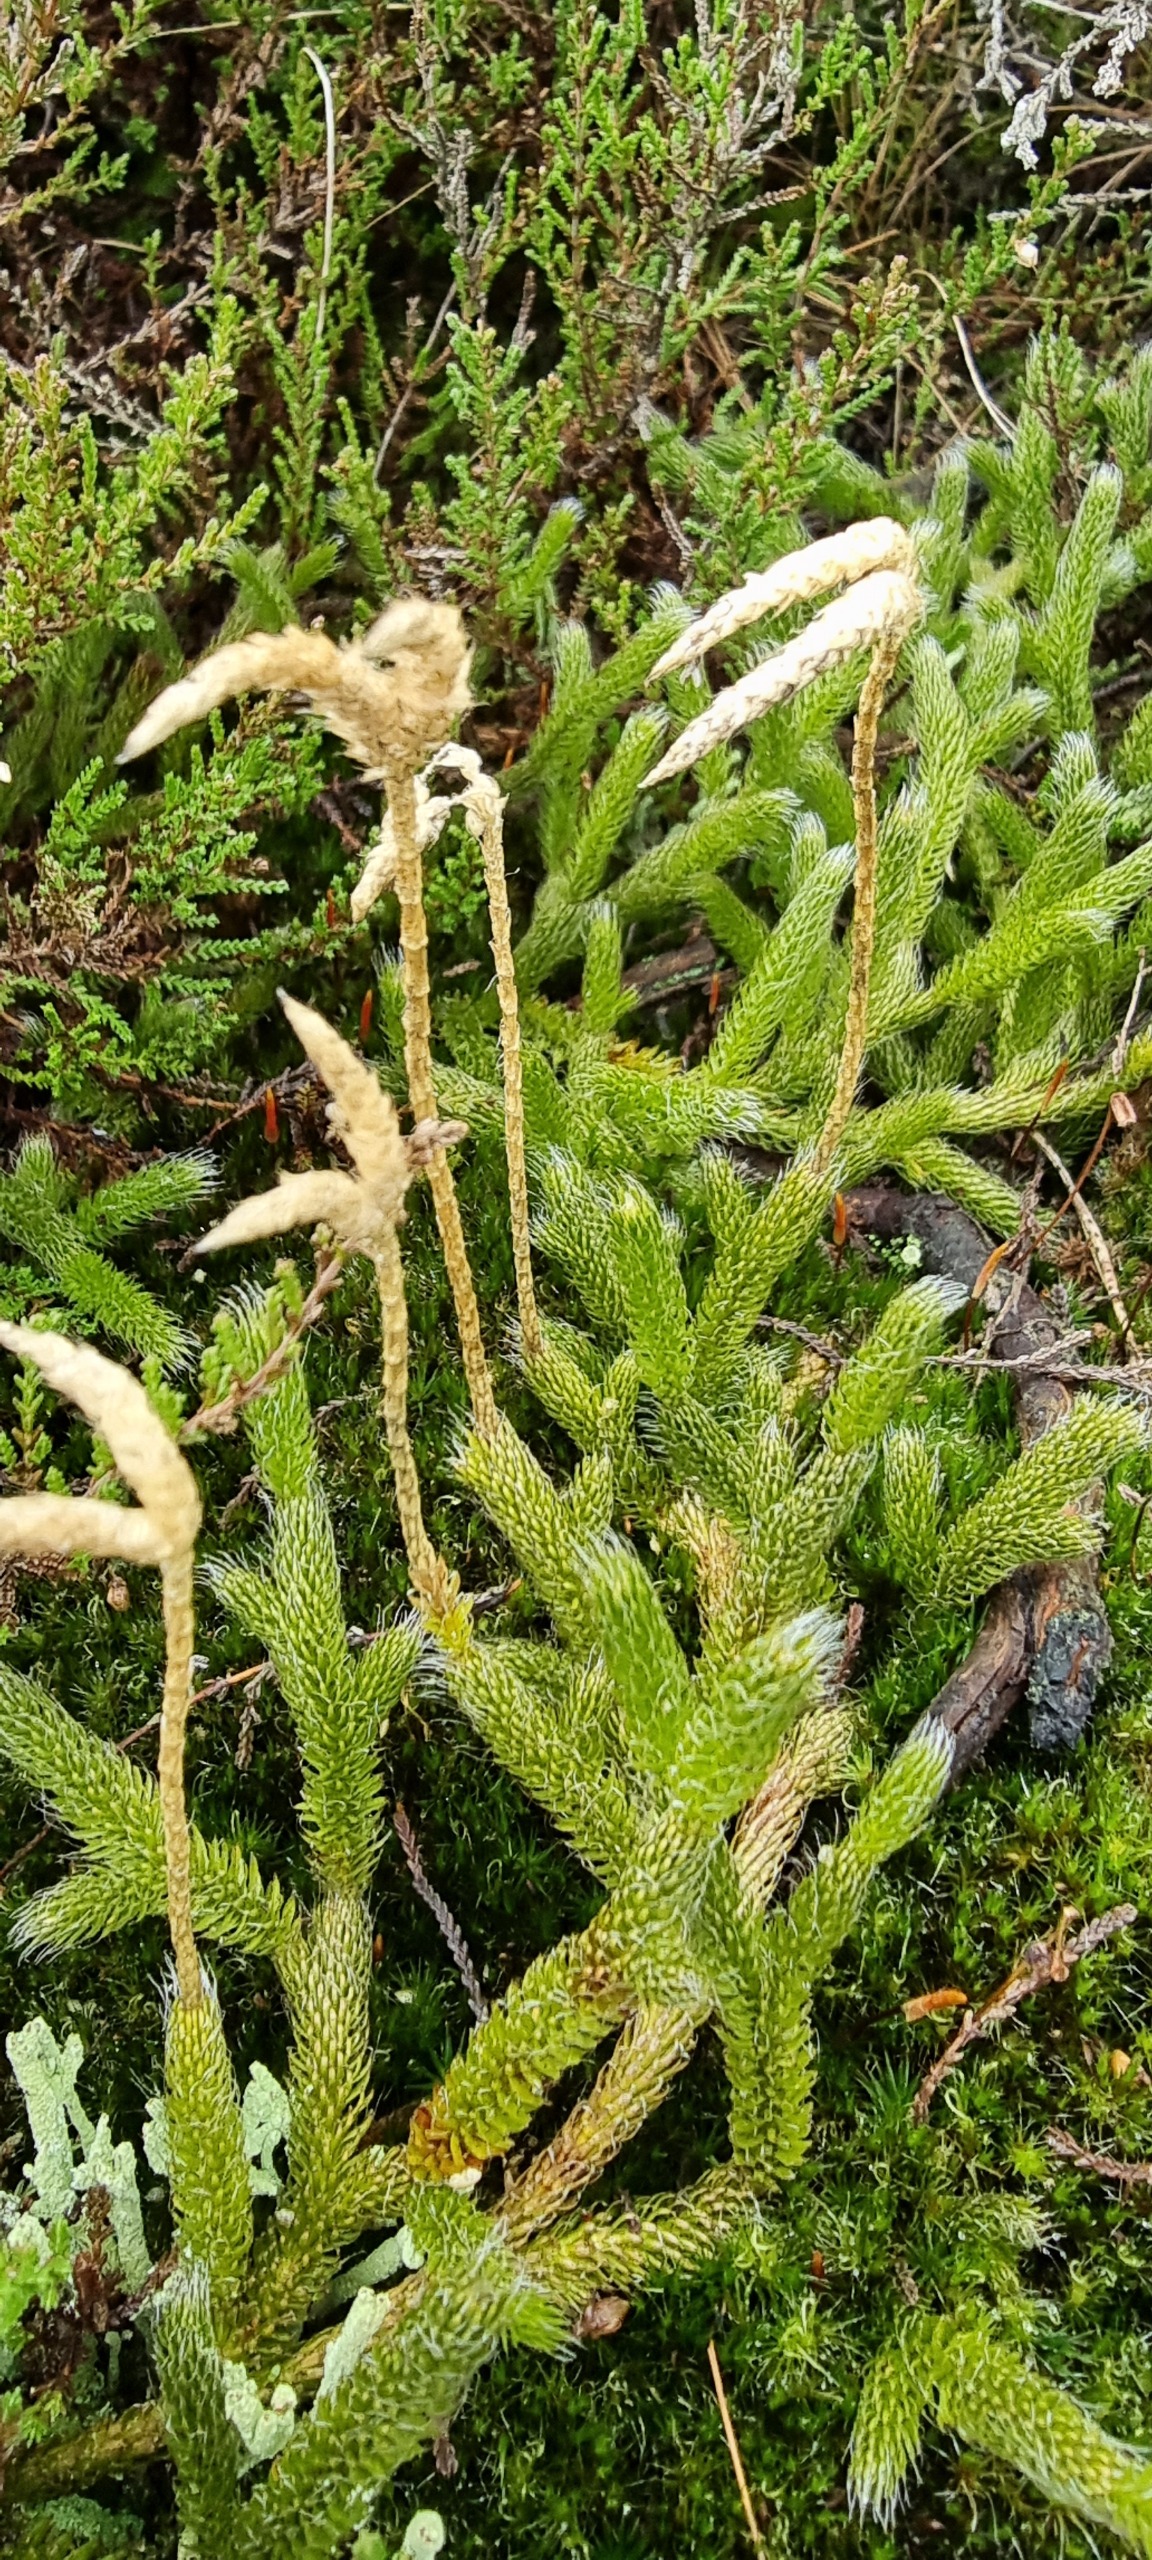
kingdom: Plantae
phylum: Tracheophyta
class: Lycopodiopsida
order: Lycopodiales
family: Lycopodiaceae
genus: Lycopodium
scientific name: Lycopodium clavatum
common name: Almindelig ulvefod
